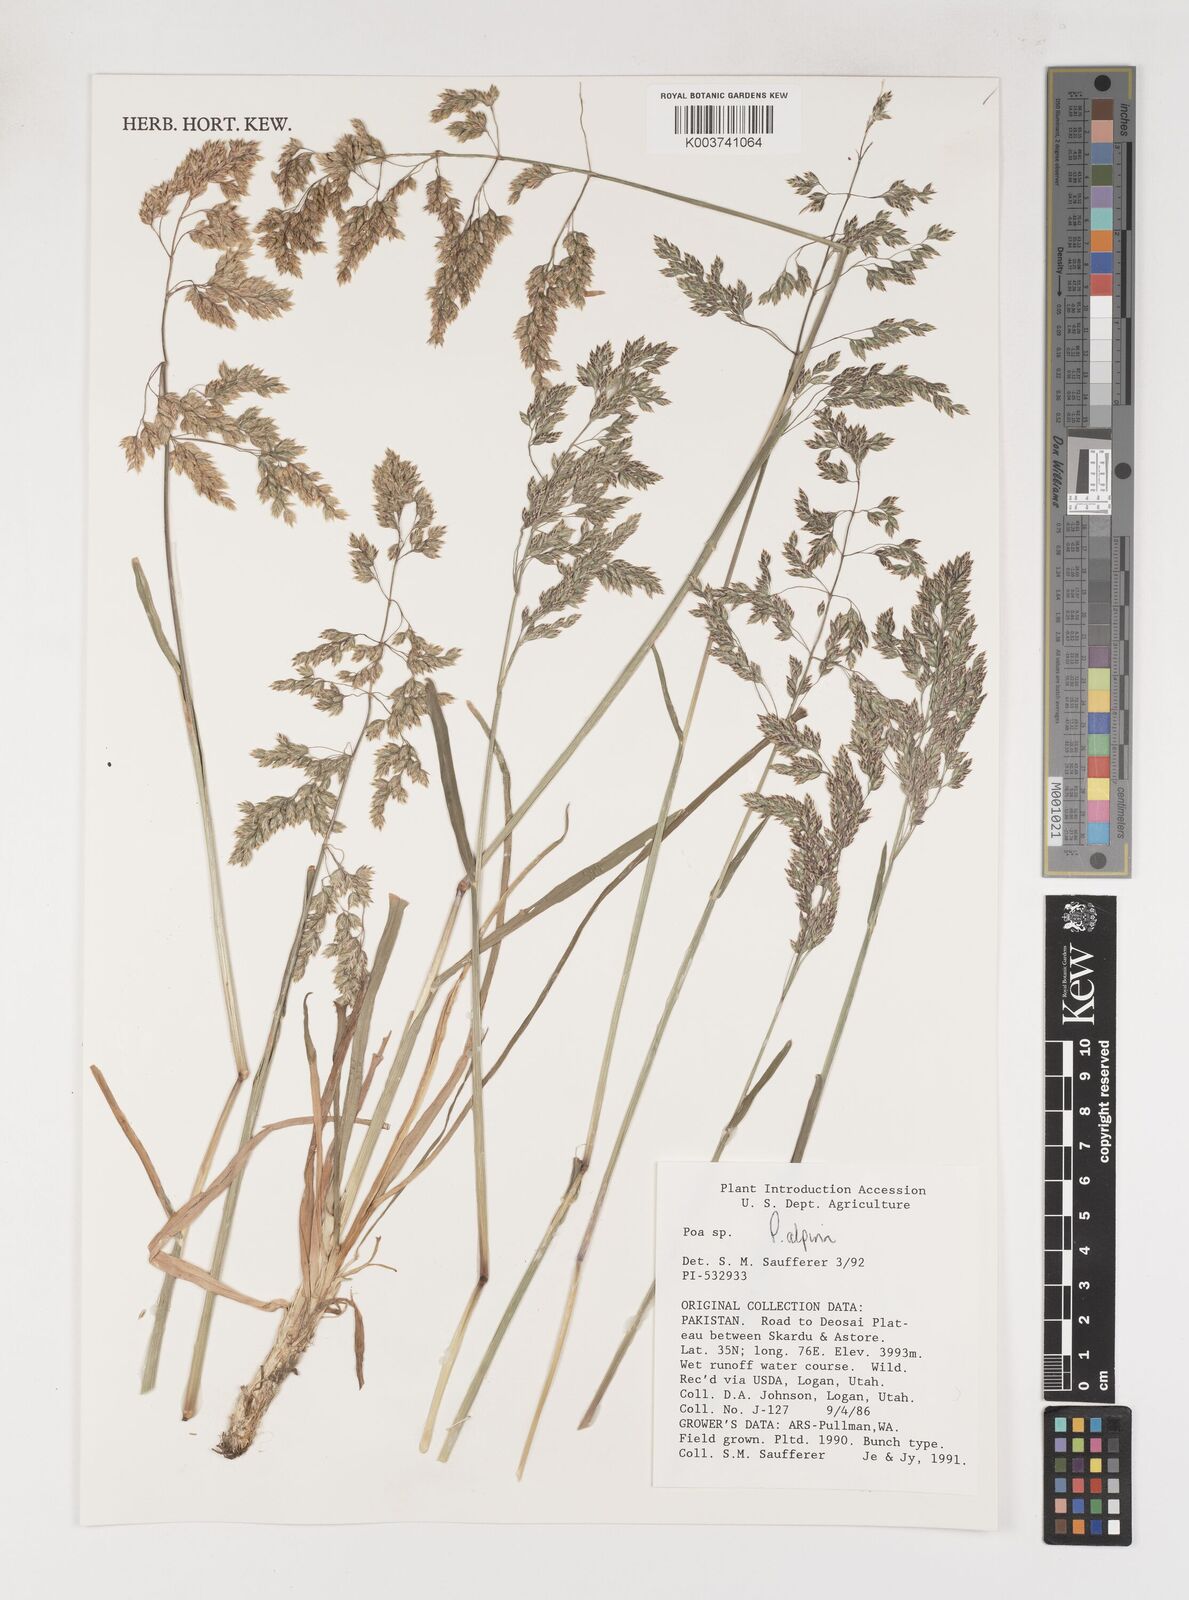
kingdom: Plantae
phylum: Tracheophyta
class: Liliopsida
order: Poales
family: Poaceae
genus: Poa
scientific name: Poa alpina
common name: Alpine bluegrass
